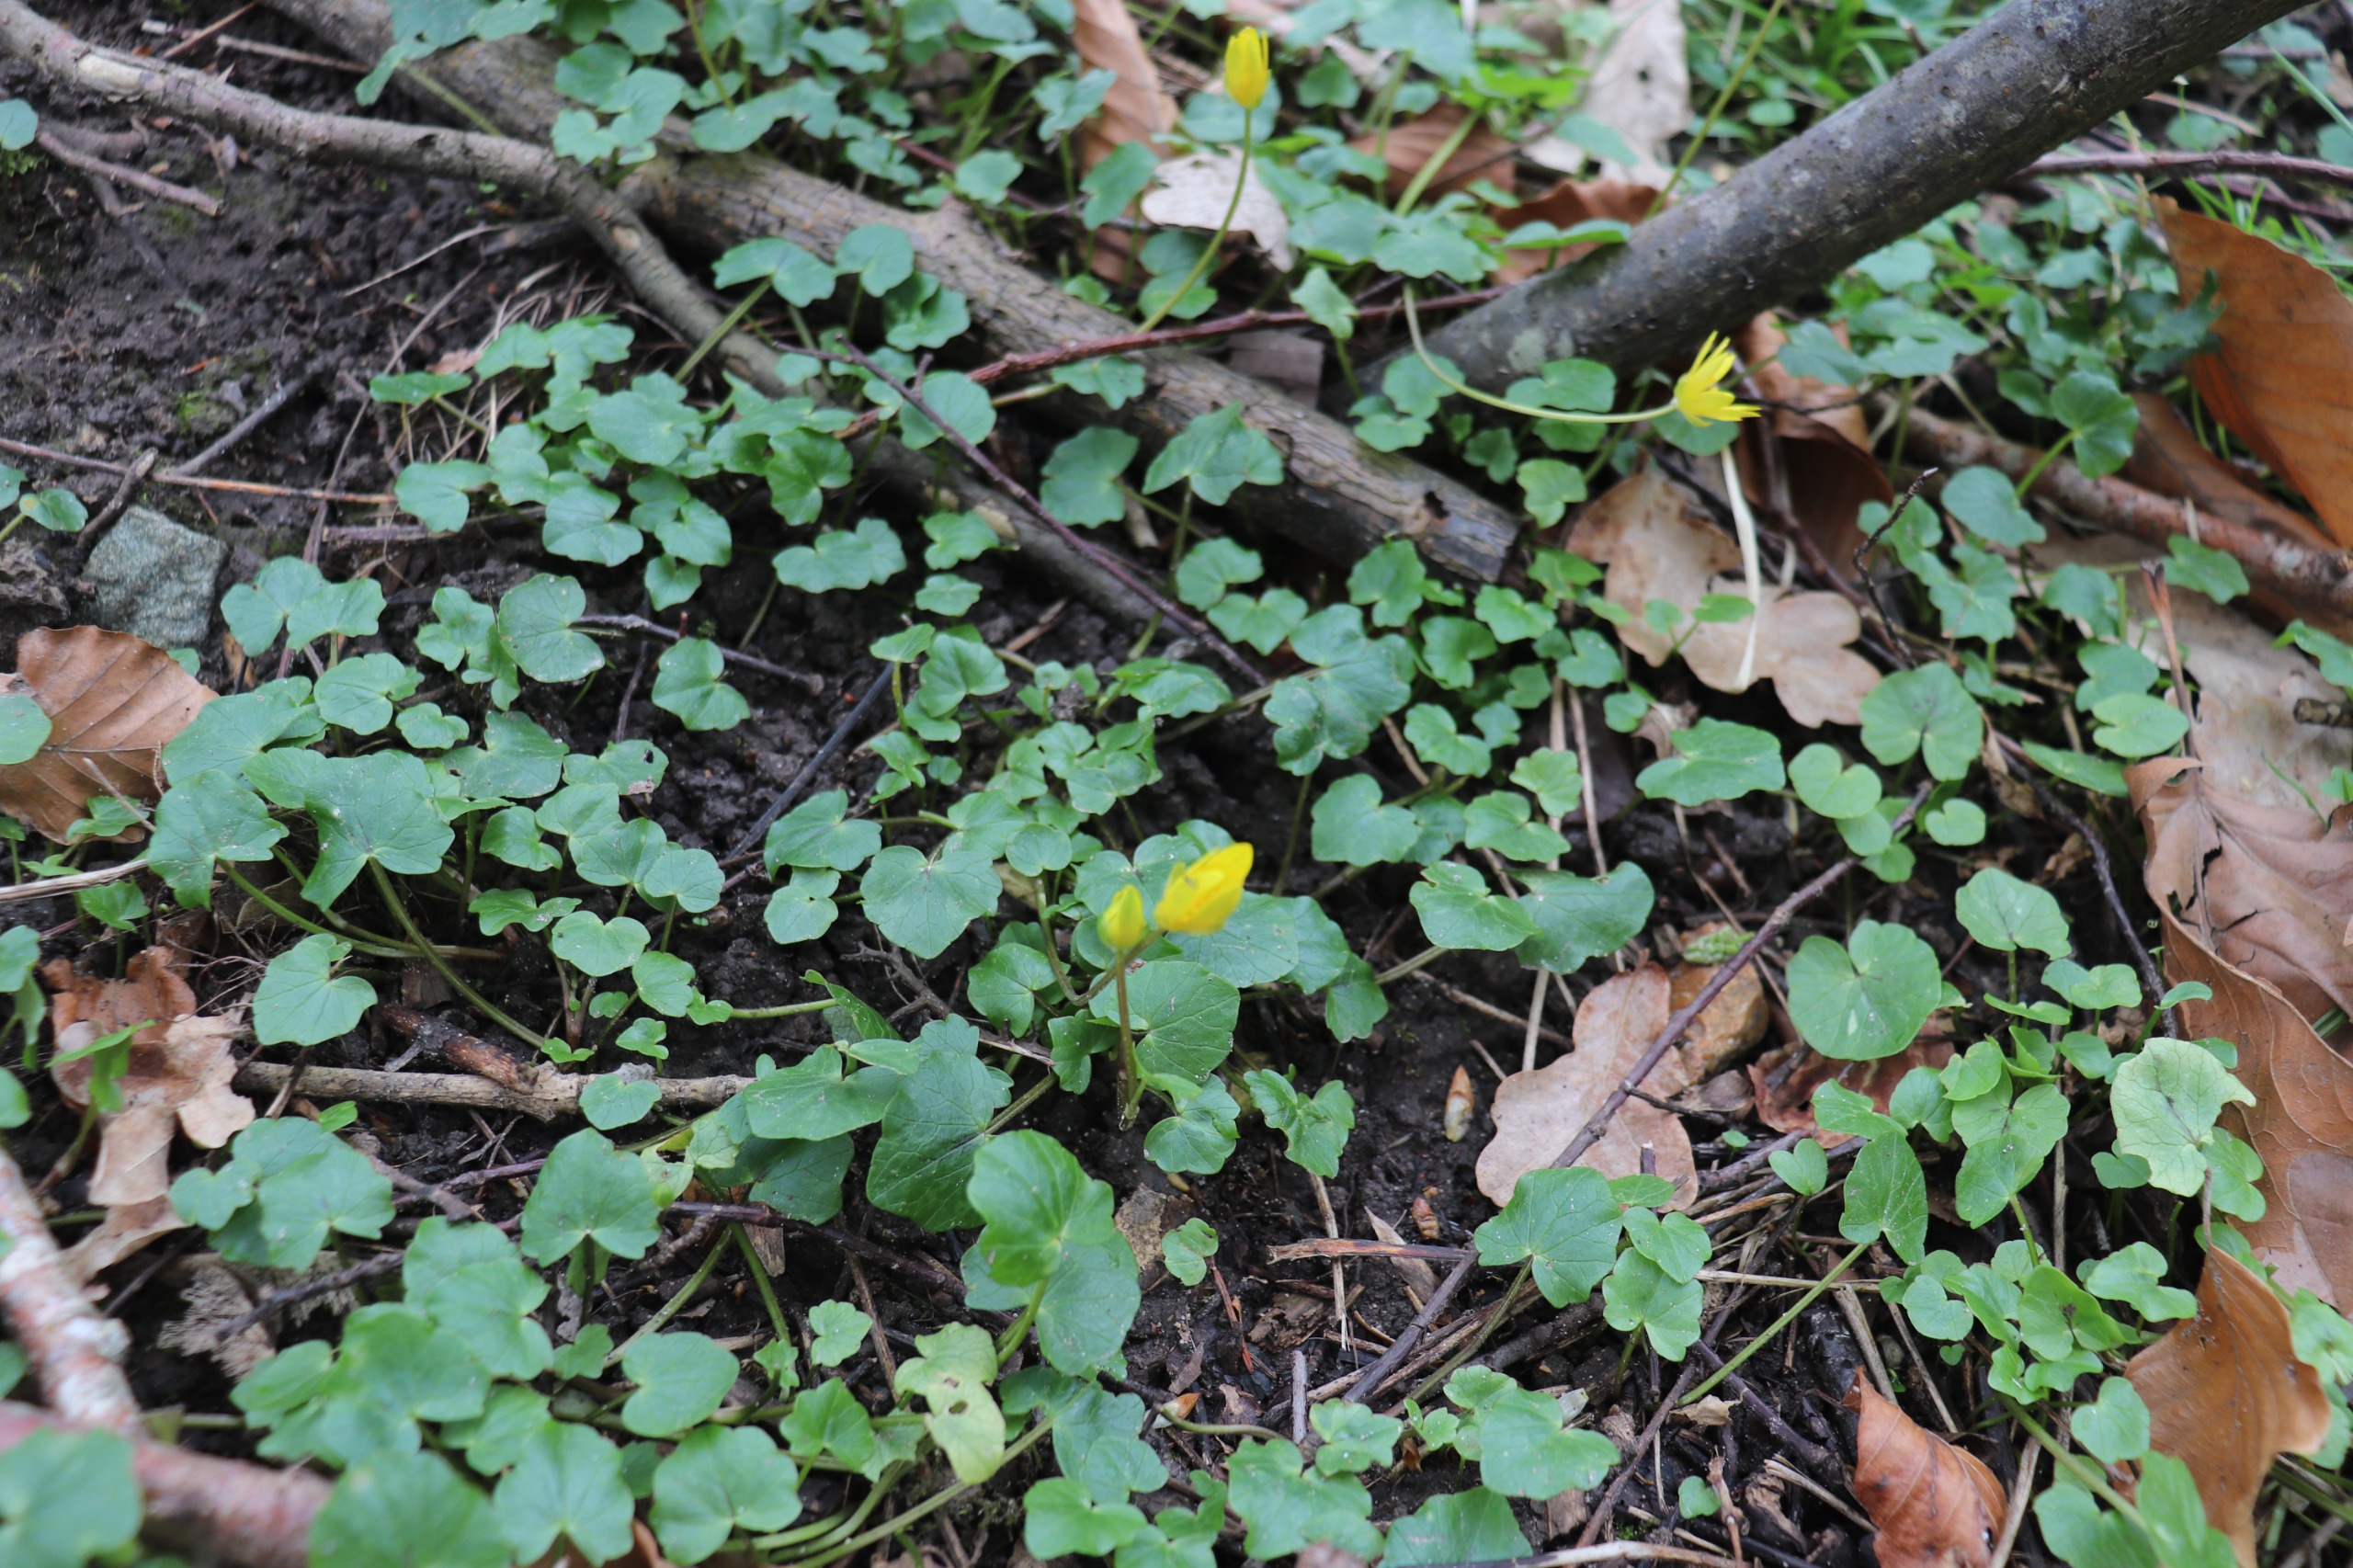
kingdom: Plantae
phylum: Tracheophyta
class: Magnoliopsida
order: Ranunculales
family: Ranunculaceae
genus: Ficaria
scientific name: Ficaria verna
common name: Vorterod
